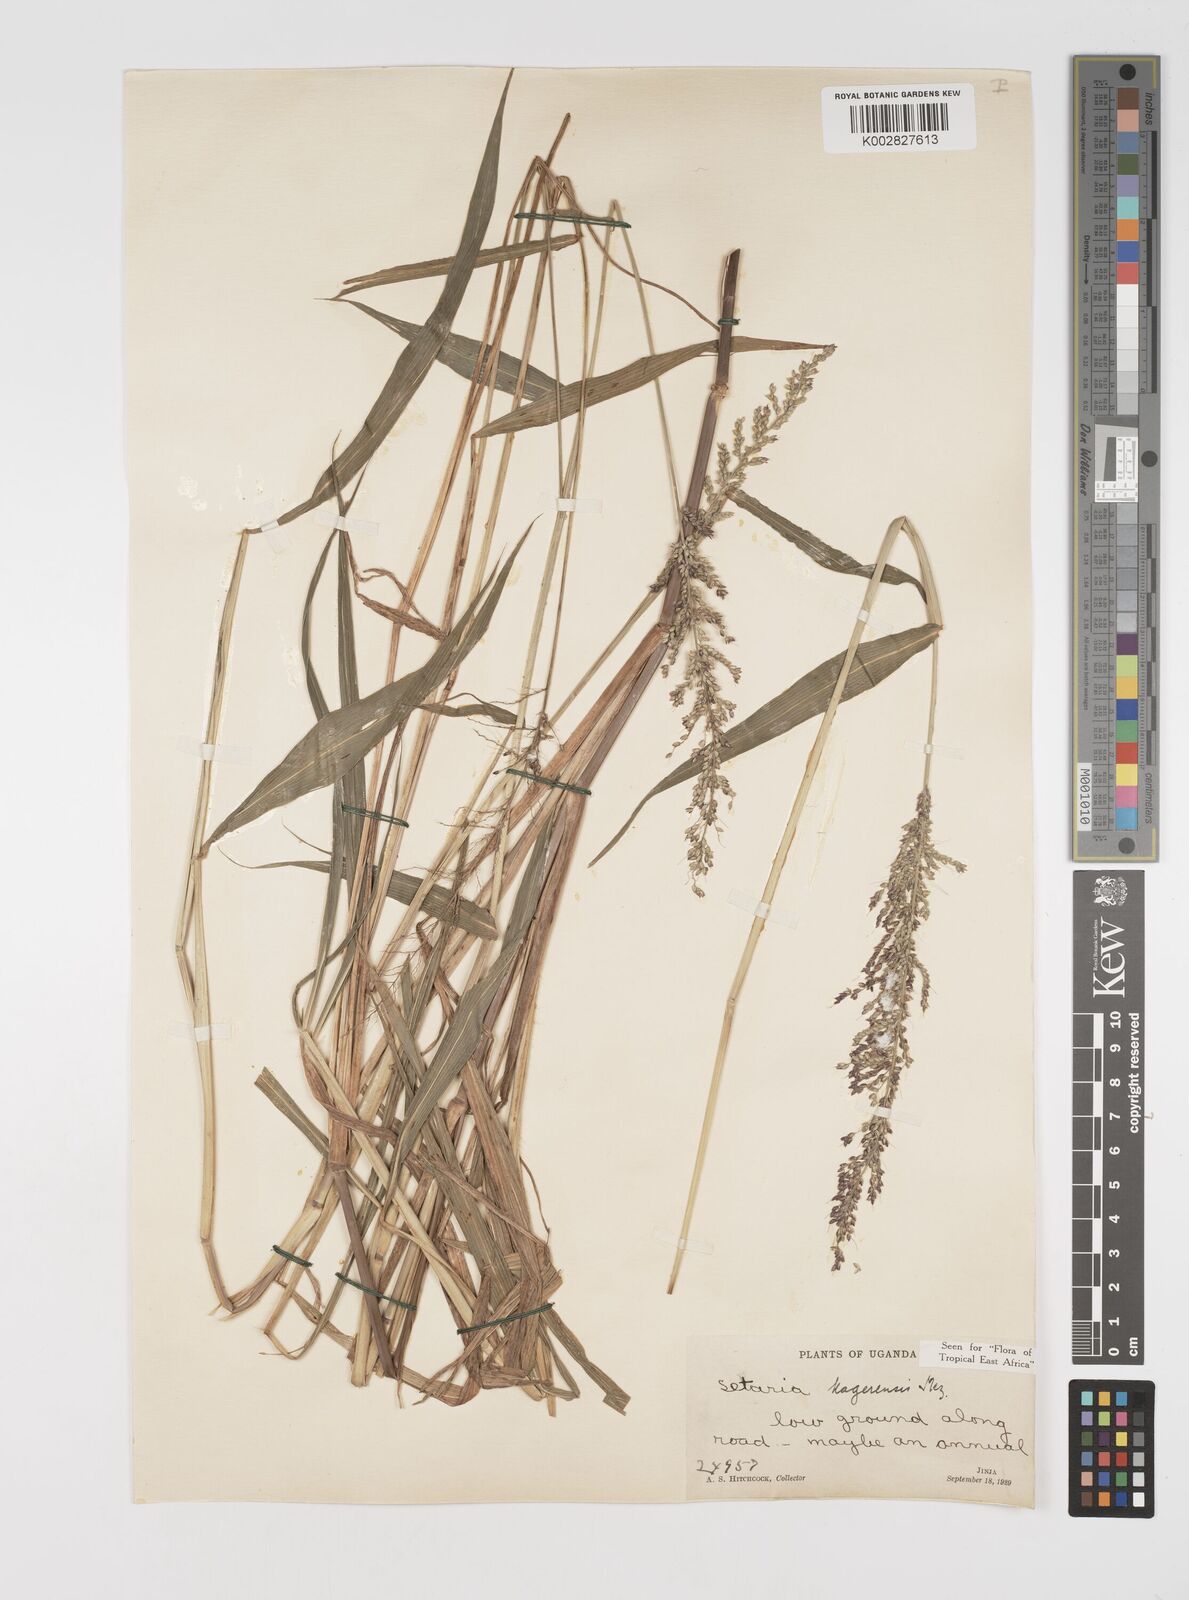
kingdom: Plantae
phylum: Tracheophyta
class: Liliopsida
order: Poales
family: Poaceae
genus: Setaria
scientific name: Setaria kagerensis
